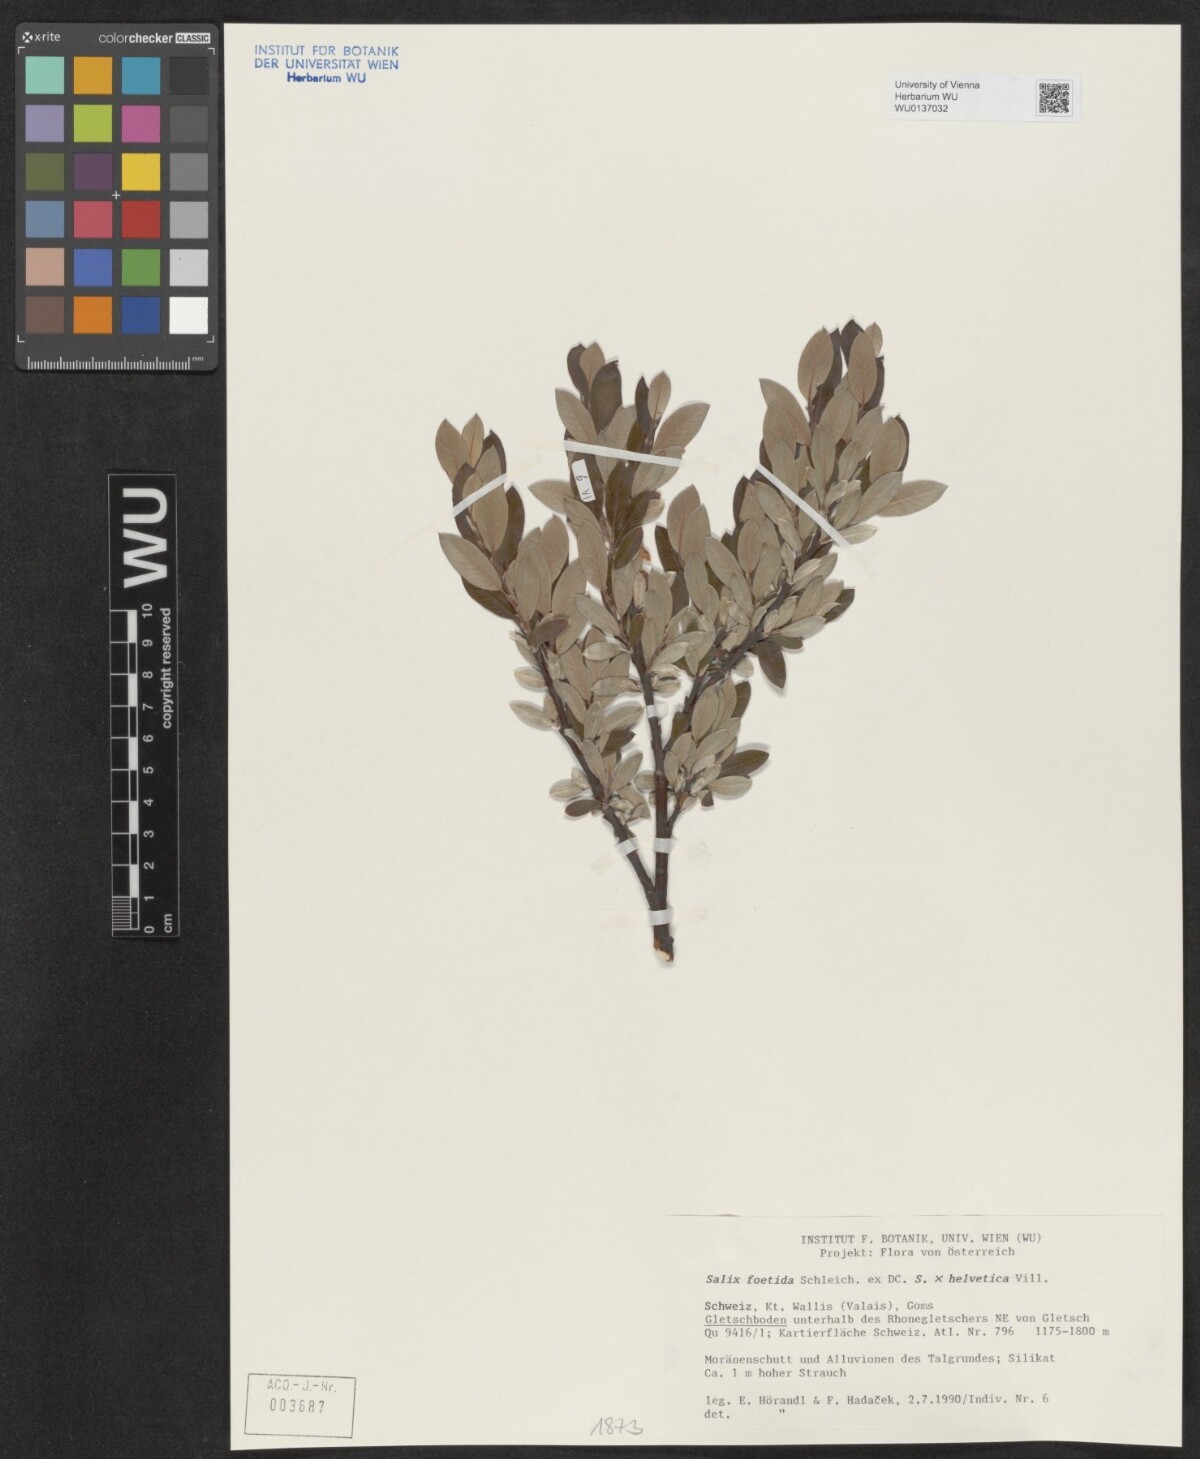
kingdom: Plantae
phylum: Tracheophyta
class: Magnoliopsida
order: Malpighiales
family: Salicaceae
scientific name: Salicaceae
